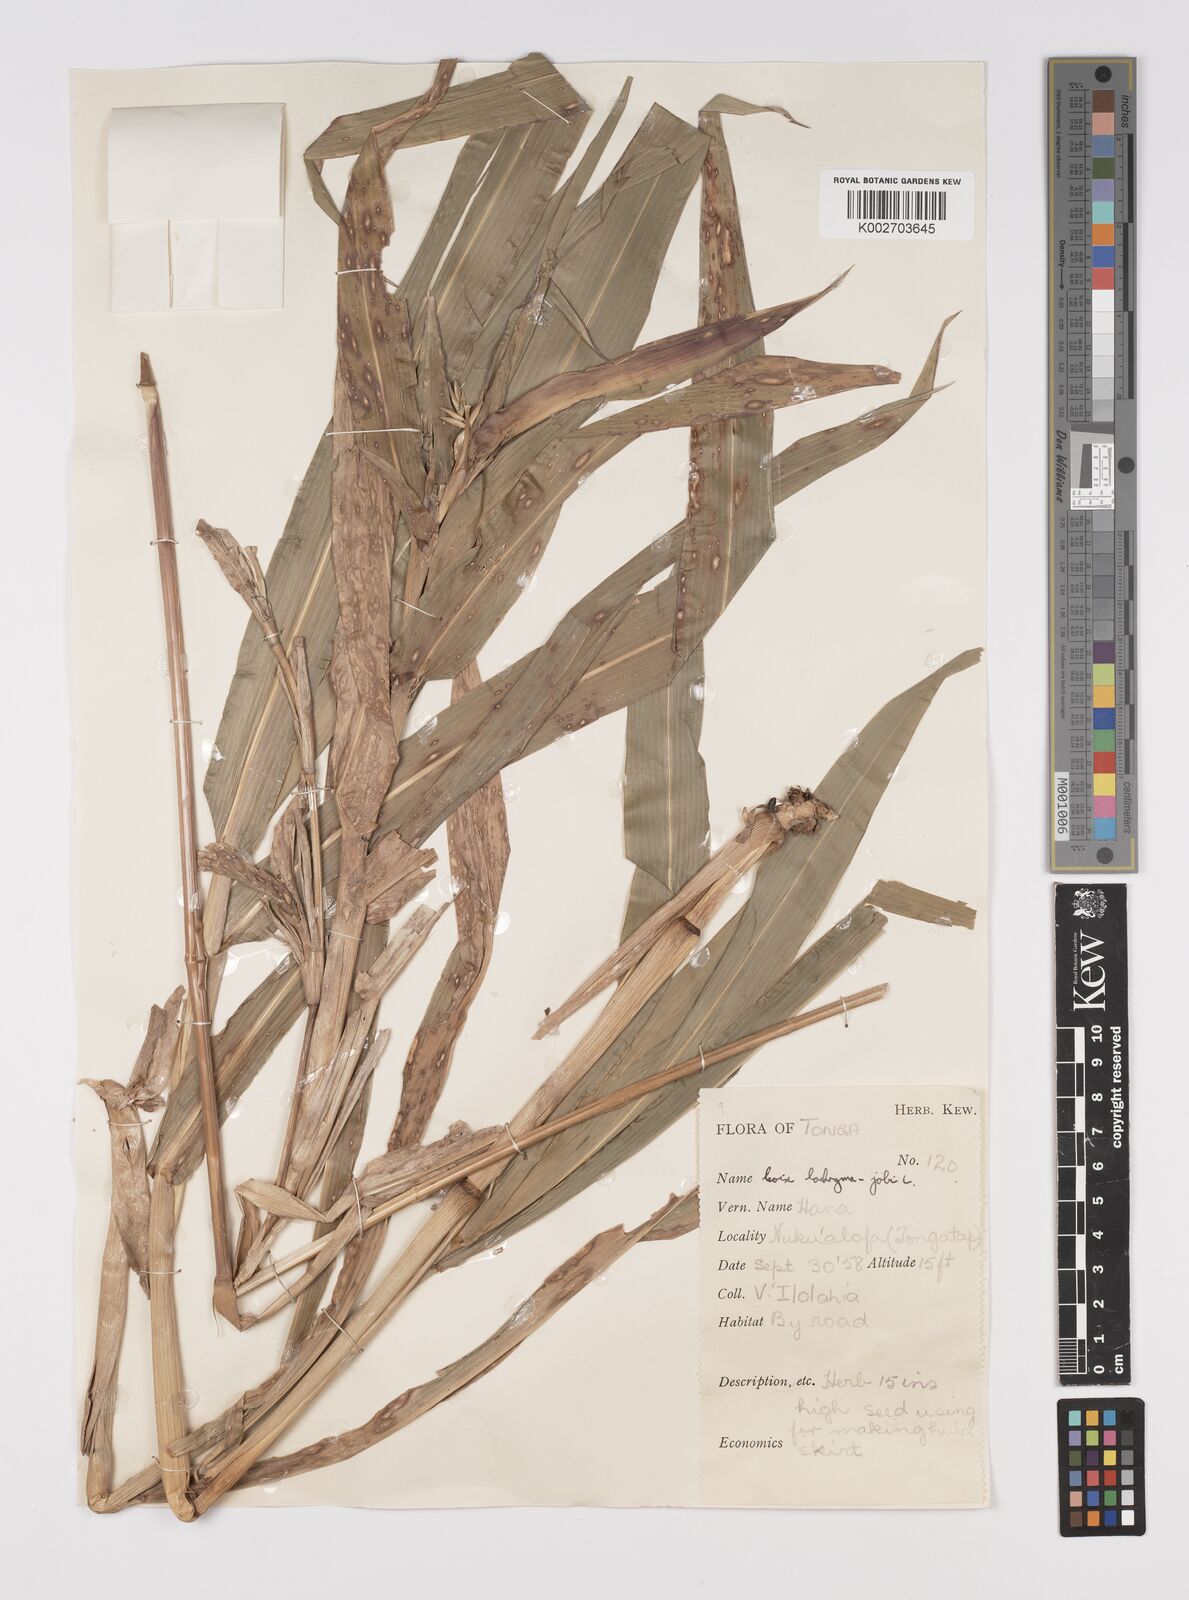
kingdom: Plantae
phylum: Tracheophyta
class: Liliopsida
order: Poales
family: Poaceae
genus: Coix
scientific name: Coix lacryma-jobi
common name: Job's tears
